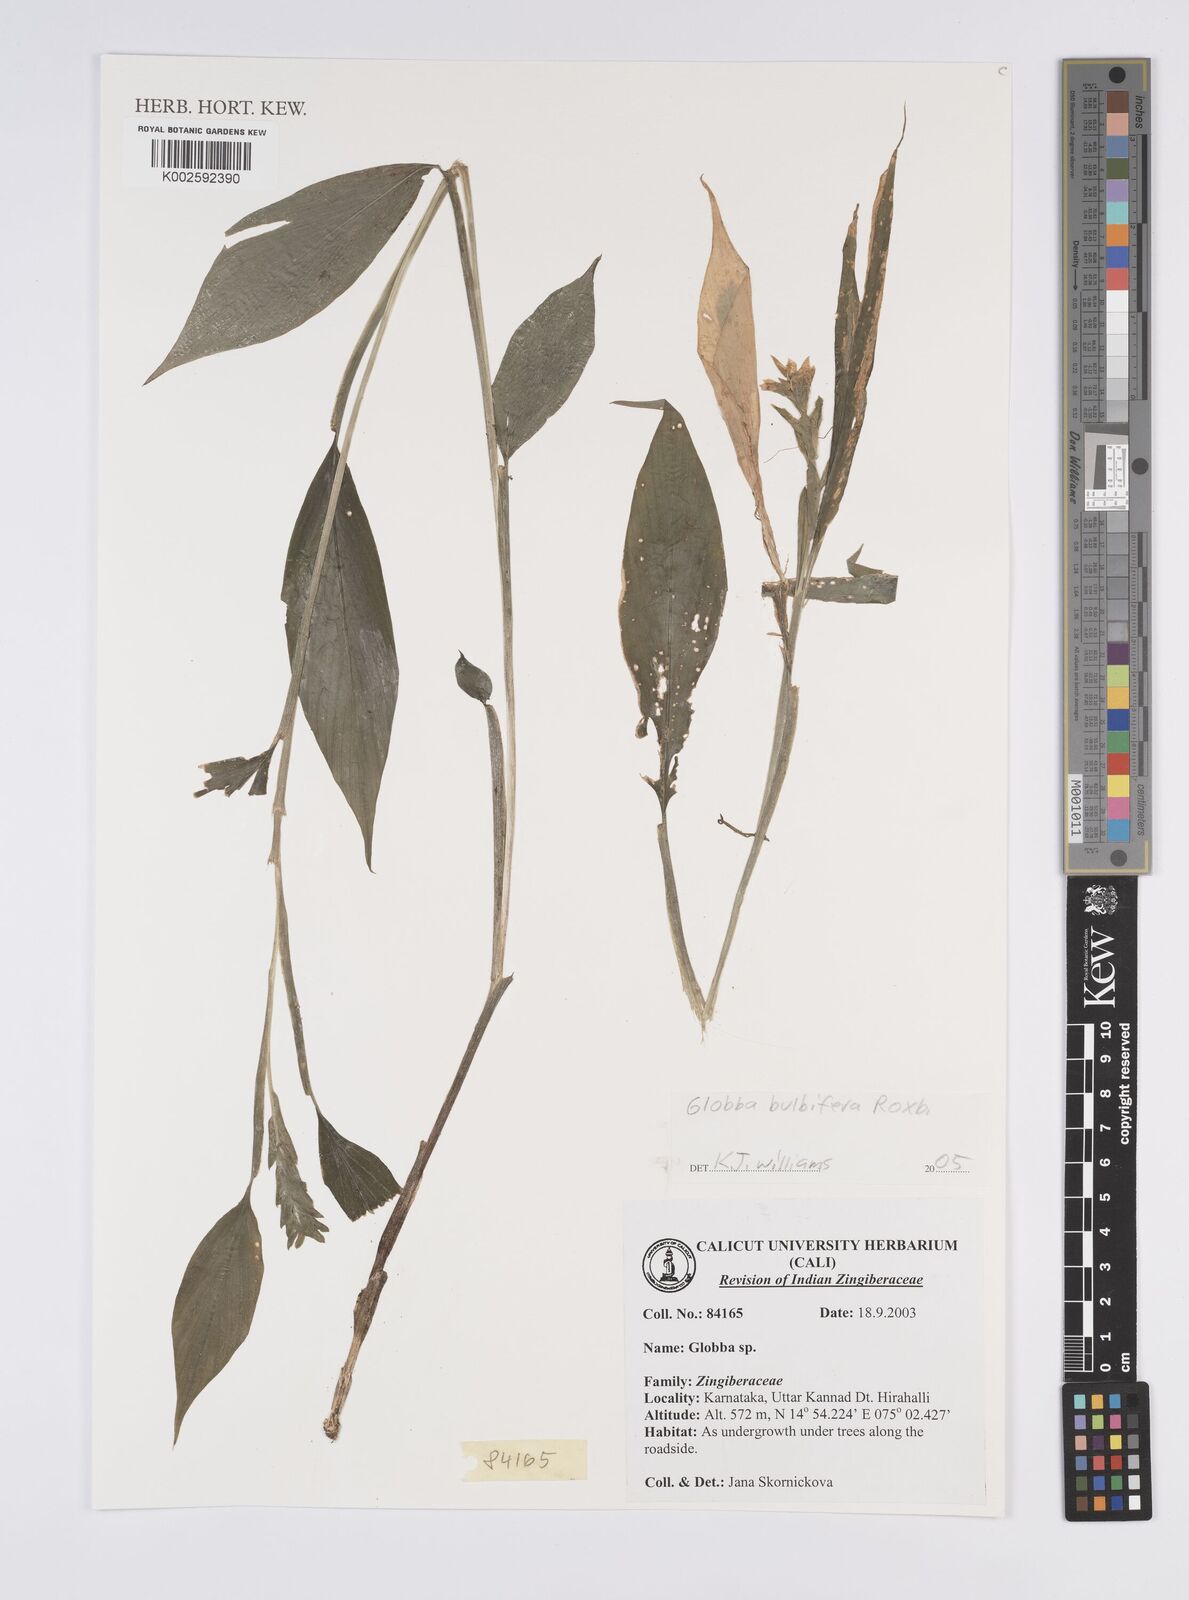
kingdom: Plantae
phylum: Tracheophyta
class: Liliopsida
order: Zingiberales
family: Zingiberaceae
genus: Globba
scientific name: Globba marantina
